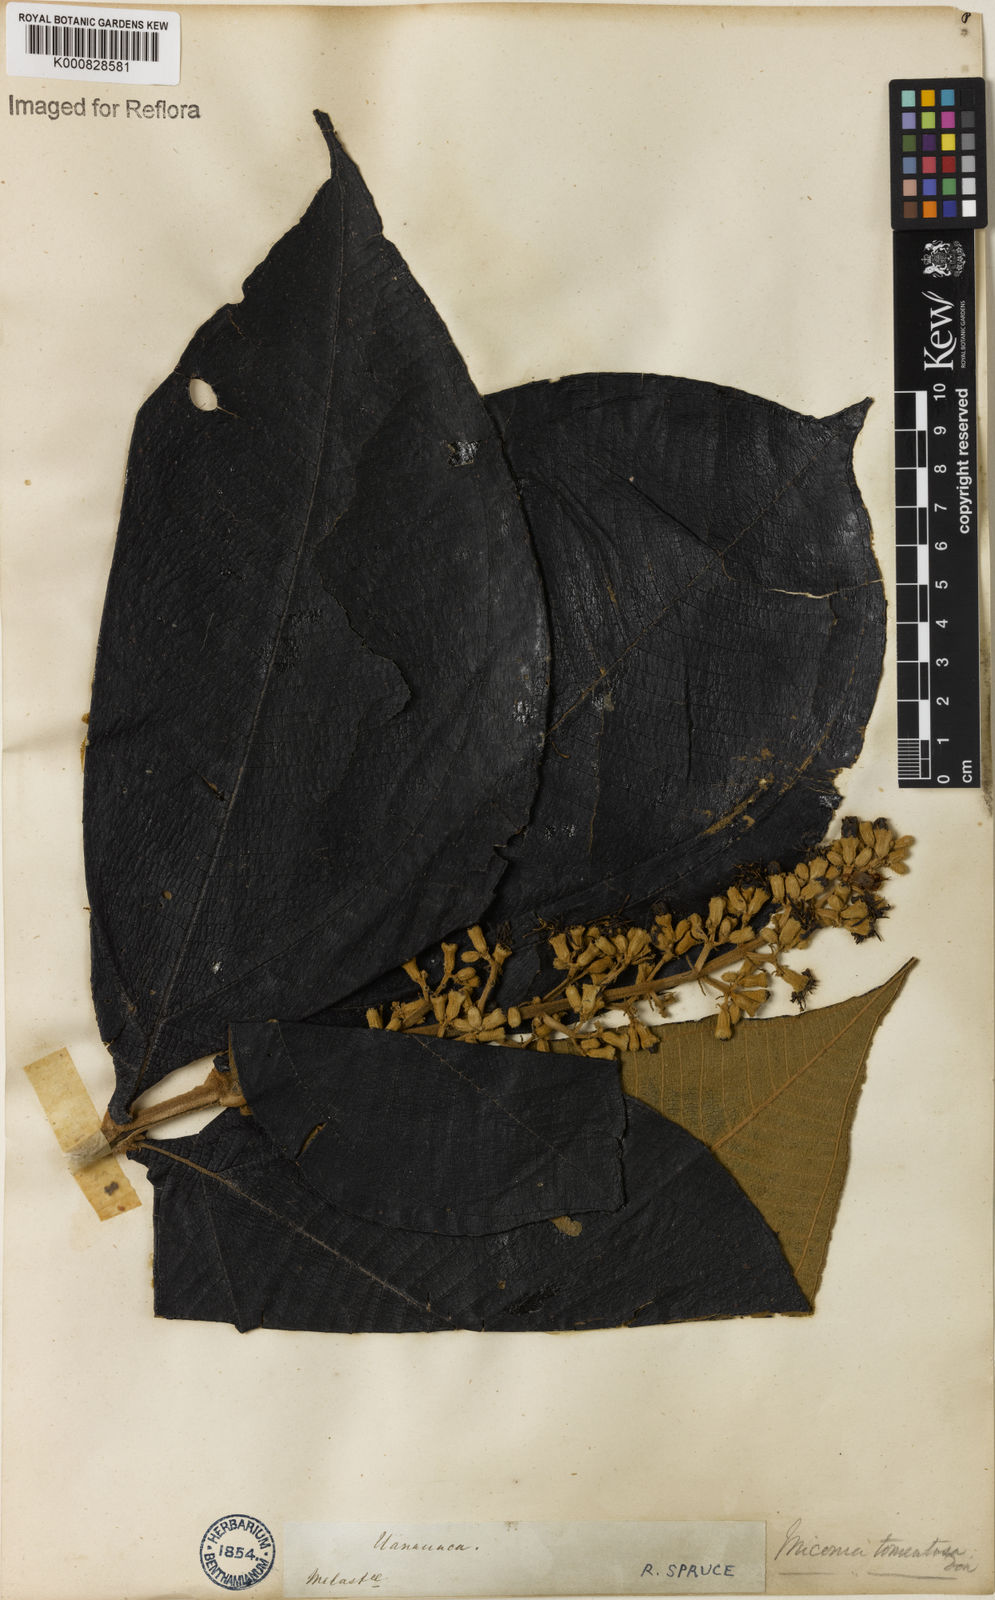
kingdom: Plantae
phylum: Tracheophyta
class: Magnoliopsida
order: Myrtales
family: Melastomataceae
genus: Miconia
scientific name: Miconia tomentosa
